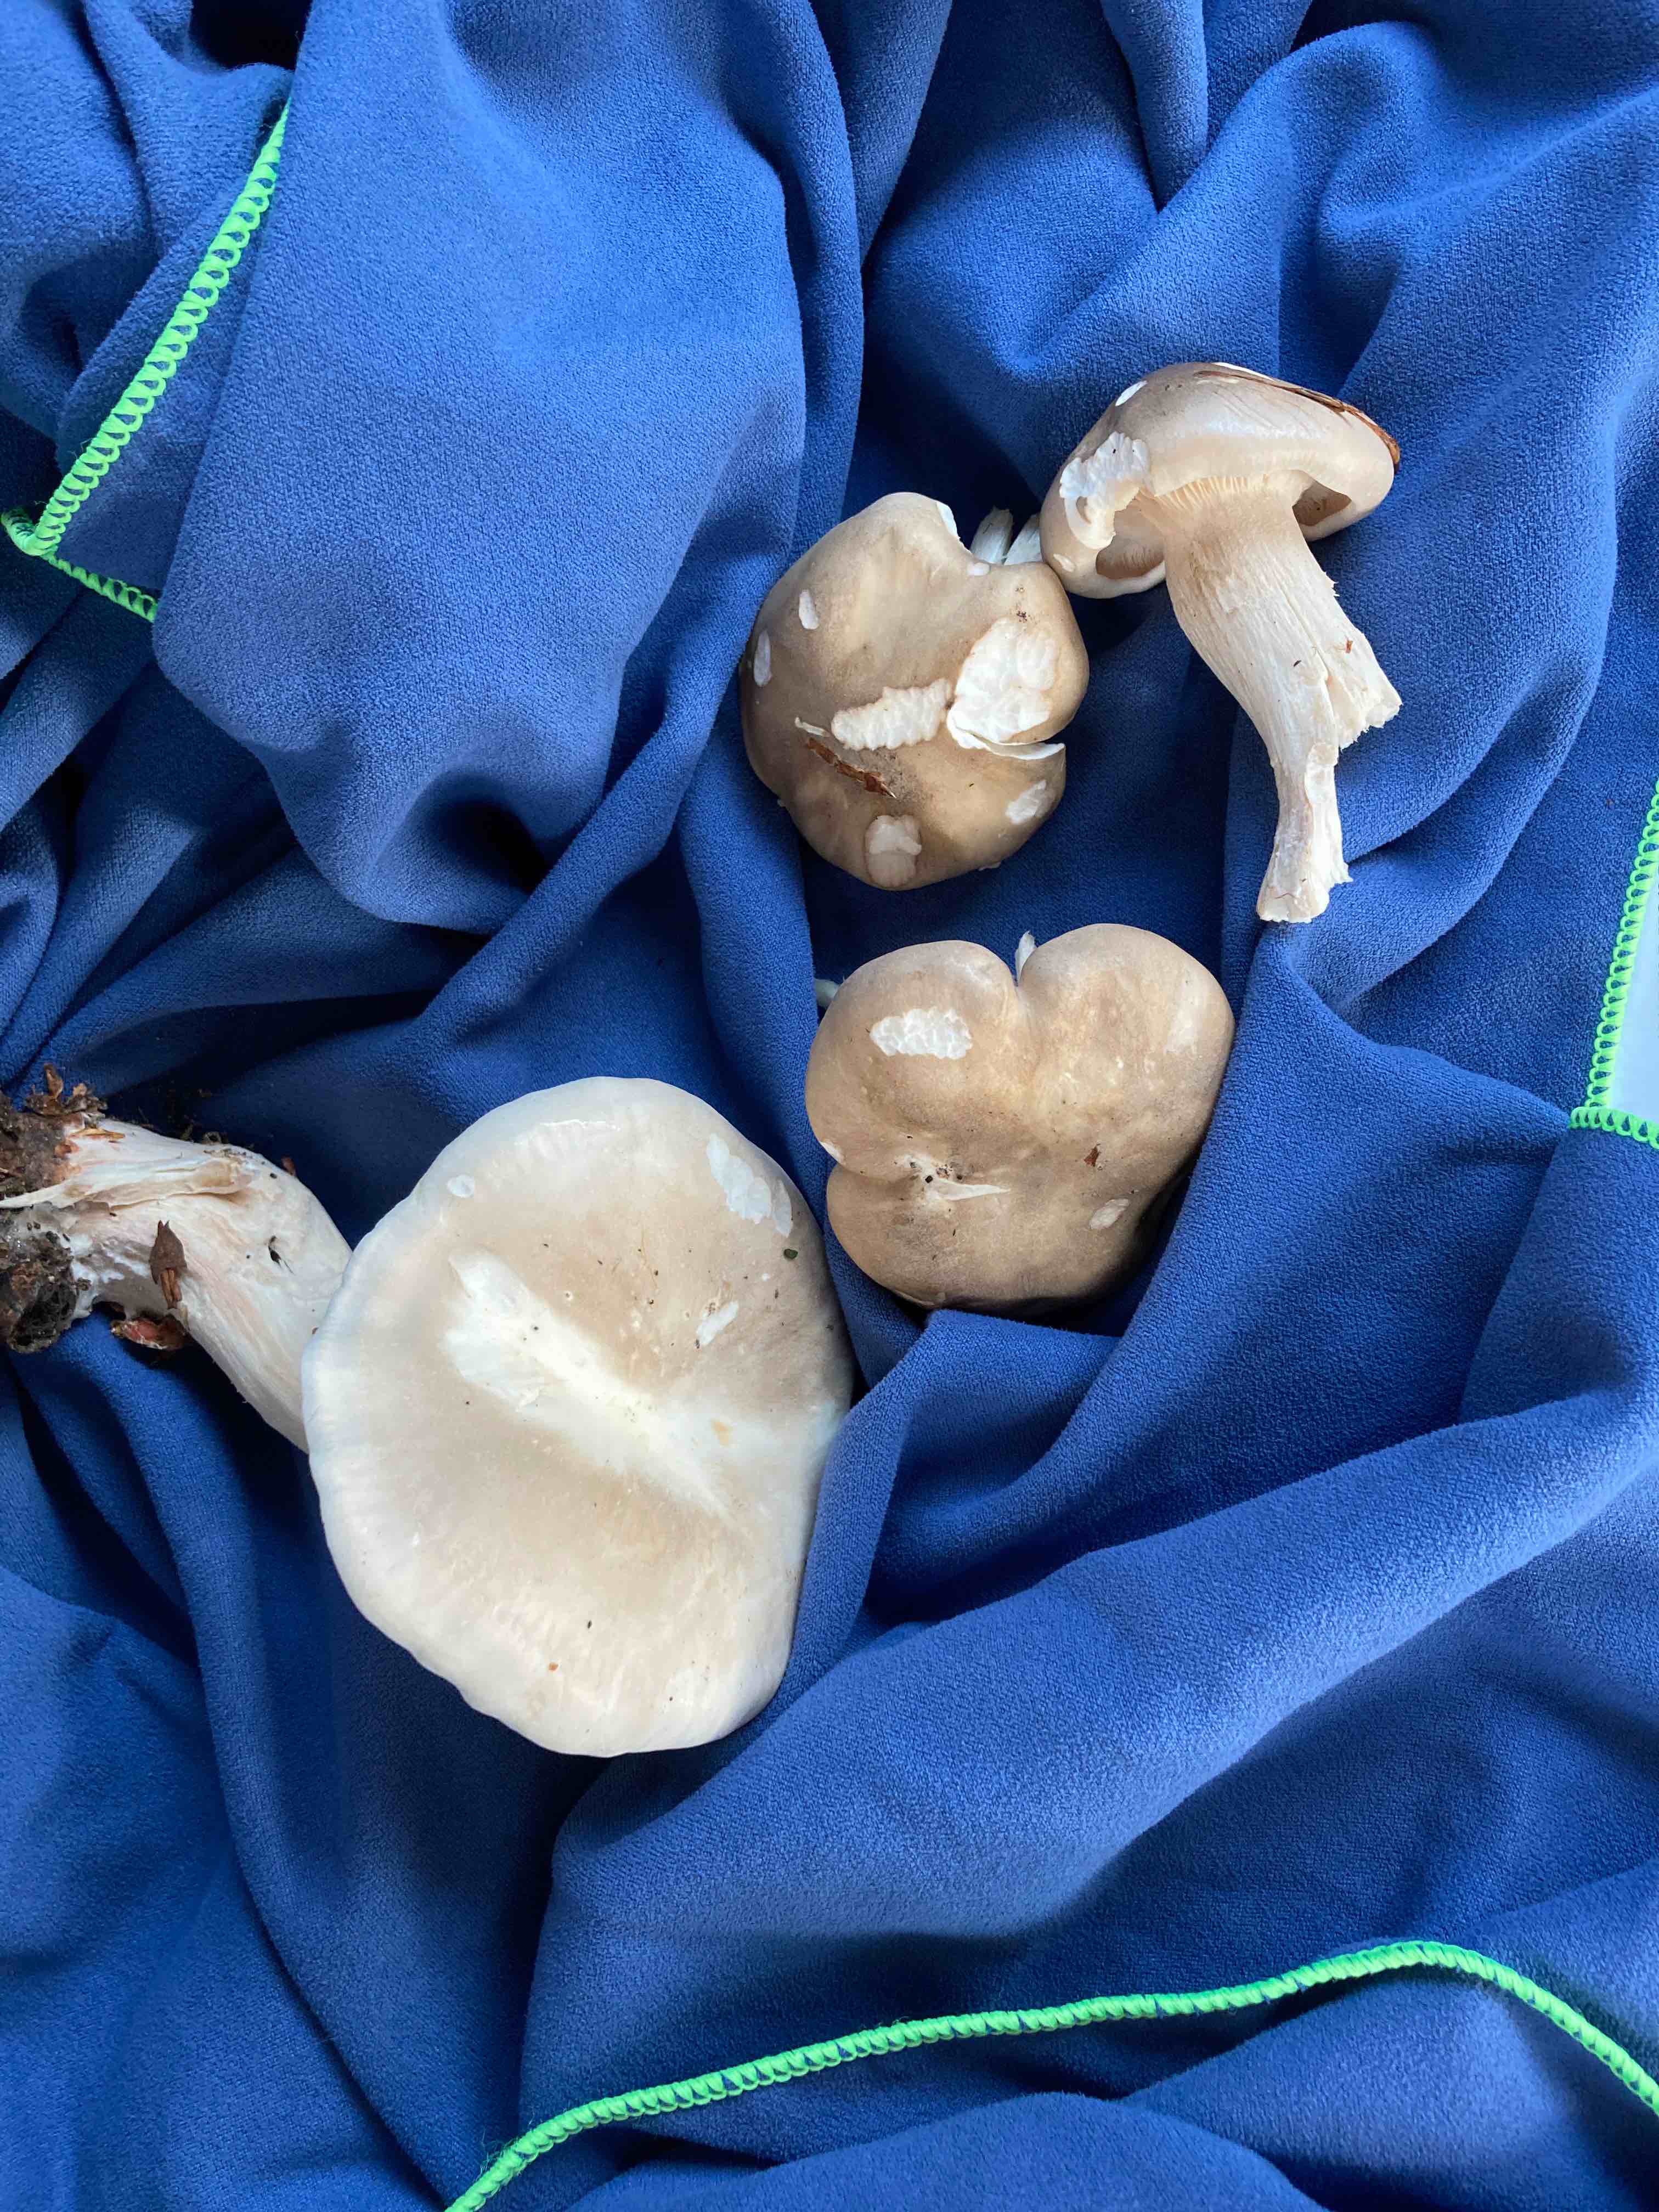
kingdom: Fungi
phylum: Basidiomycota
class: Agaricomycetes
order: Agaricales
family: Tricholomataceae
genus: Clitocybe
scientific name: Clitocybe nebularis
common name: tåge-tragthat
